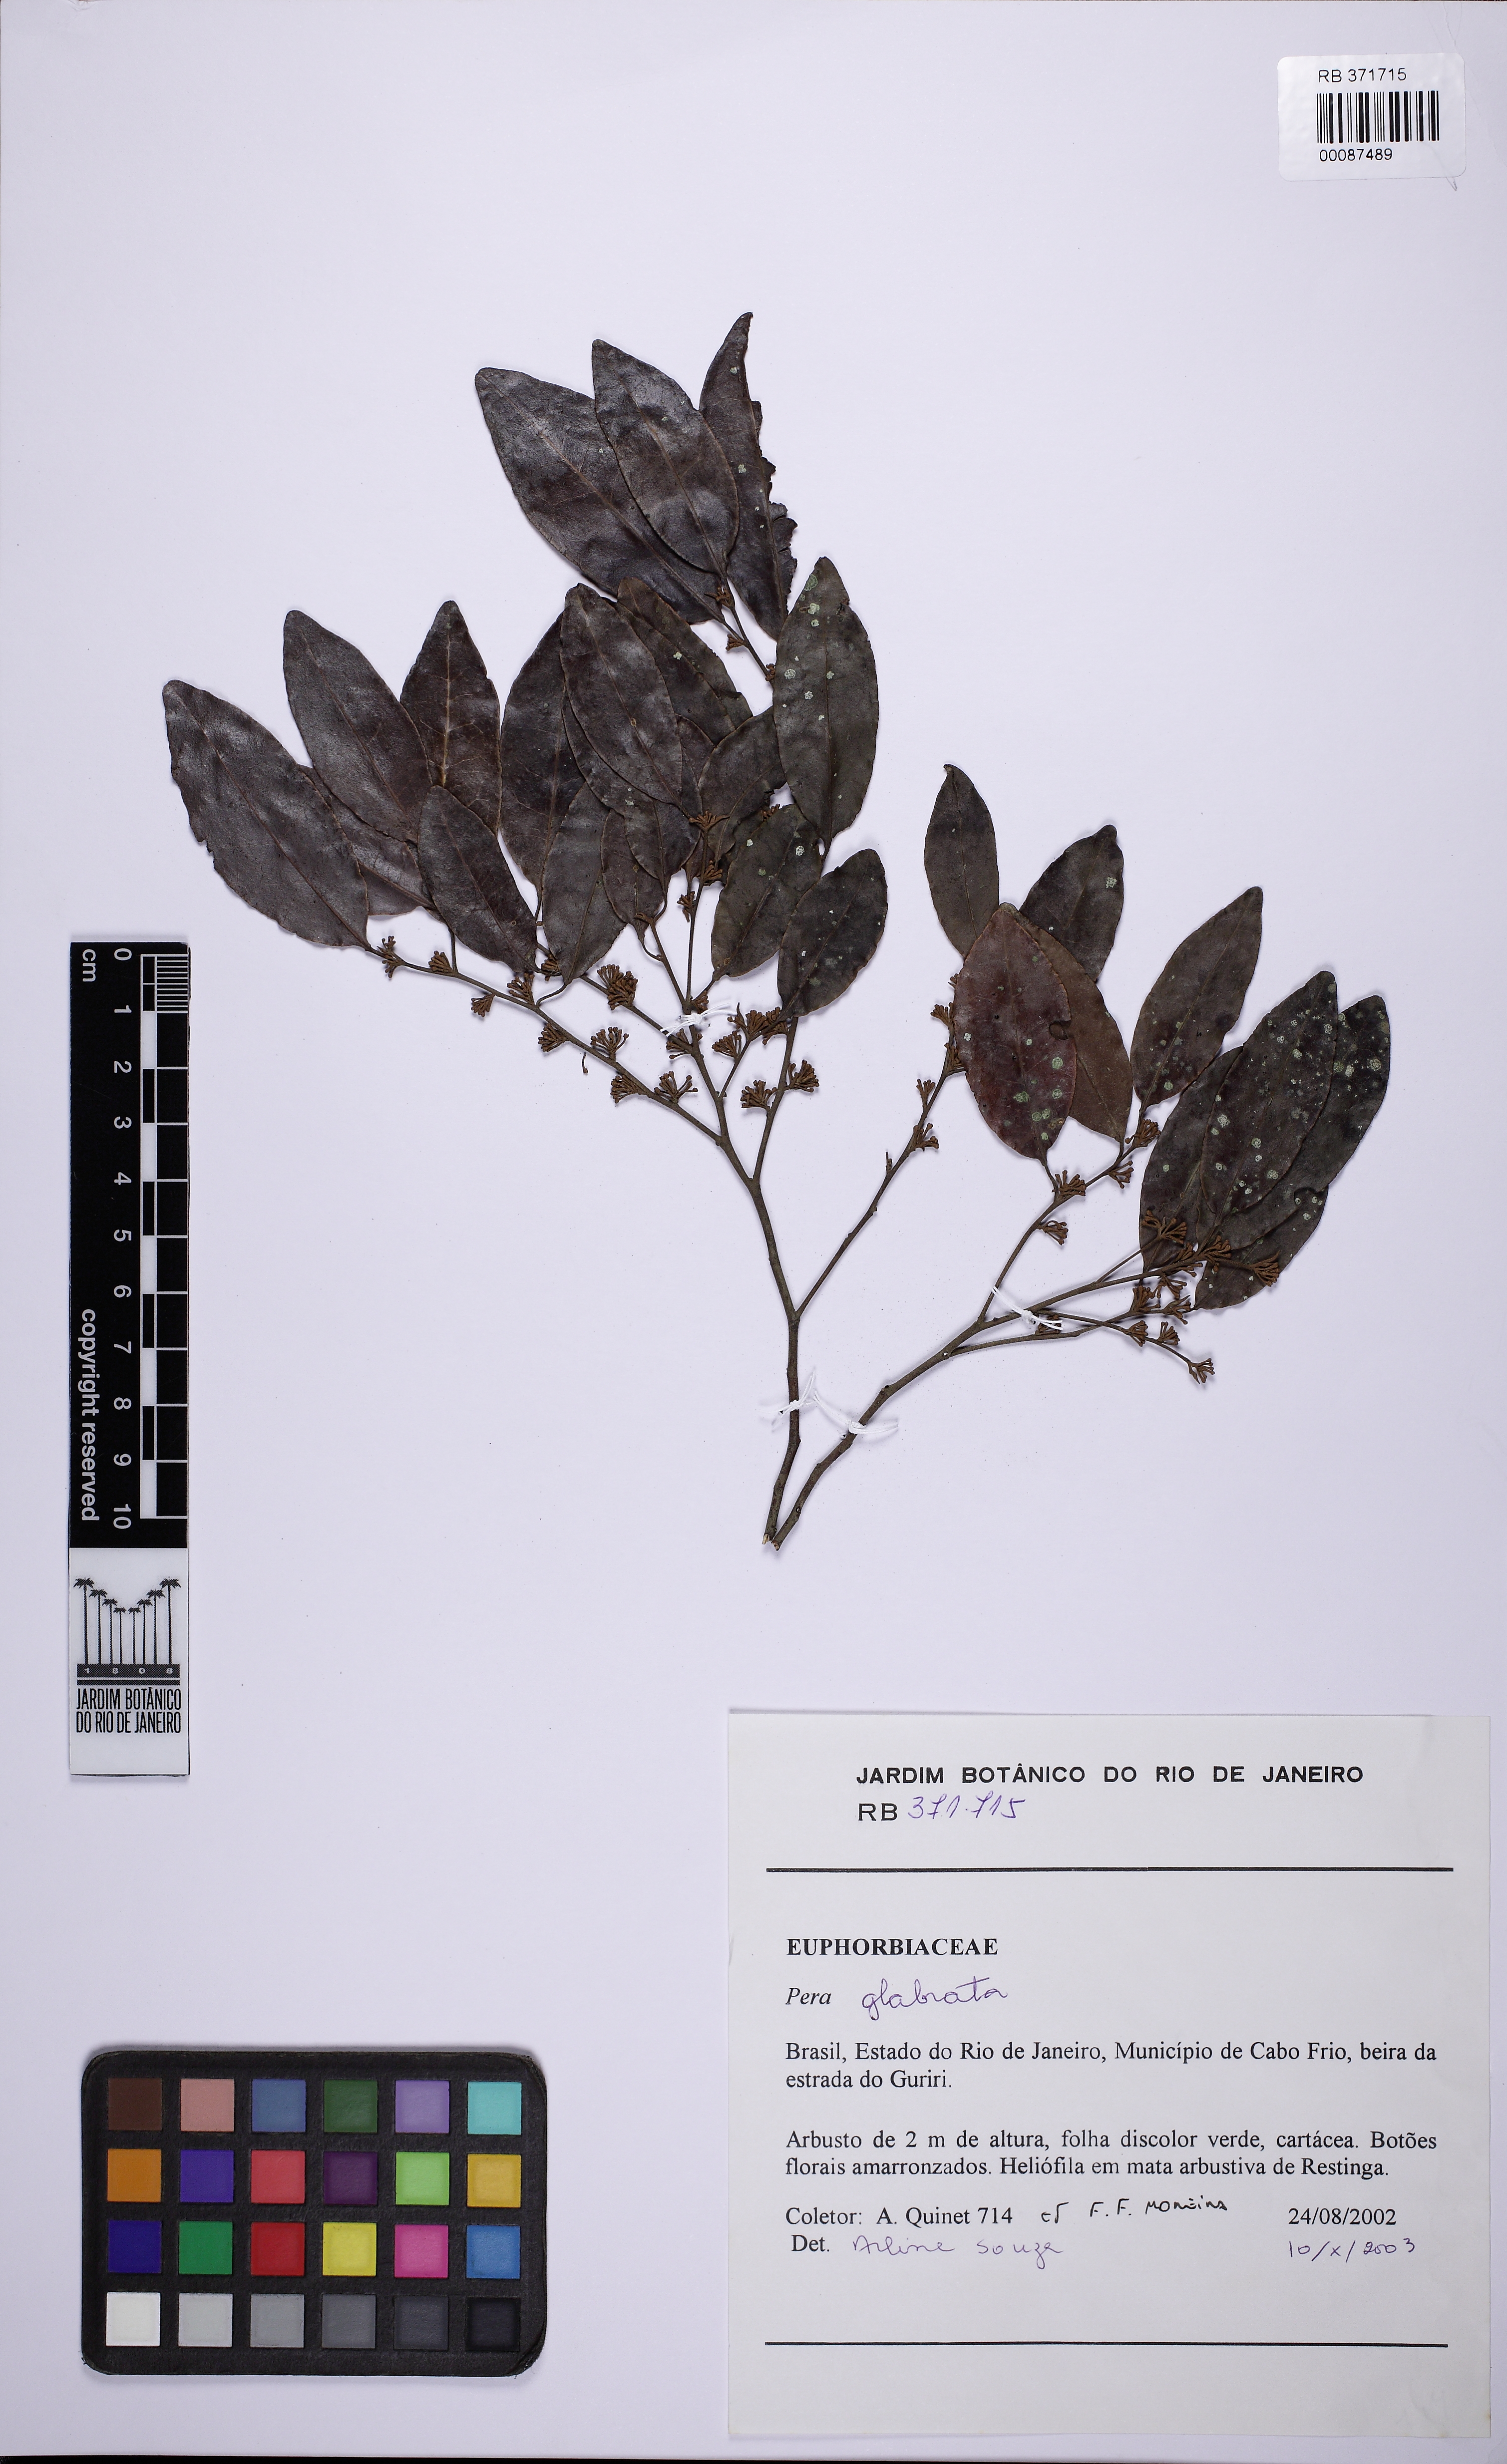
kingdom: Plantae
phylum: Tracheophyta
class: Magnoliopsida
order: Malpighiales
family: Peraceae
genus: Pera
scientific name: Pera glabrata
